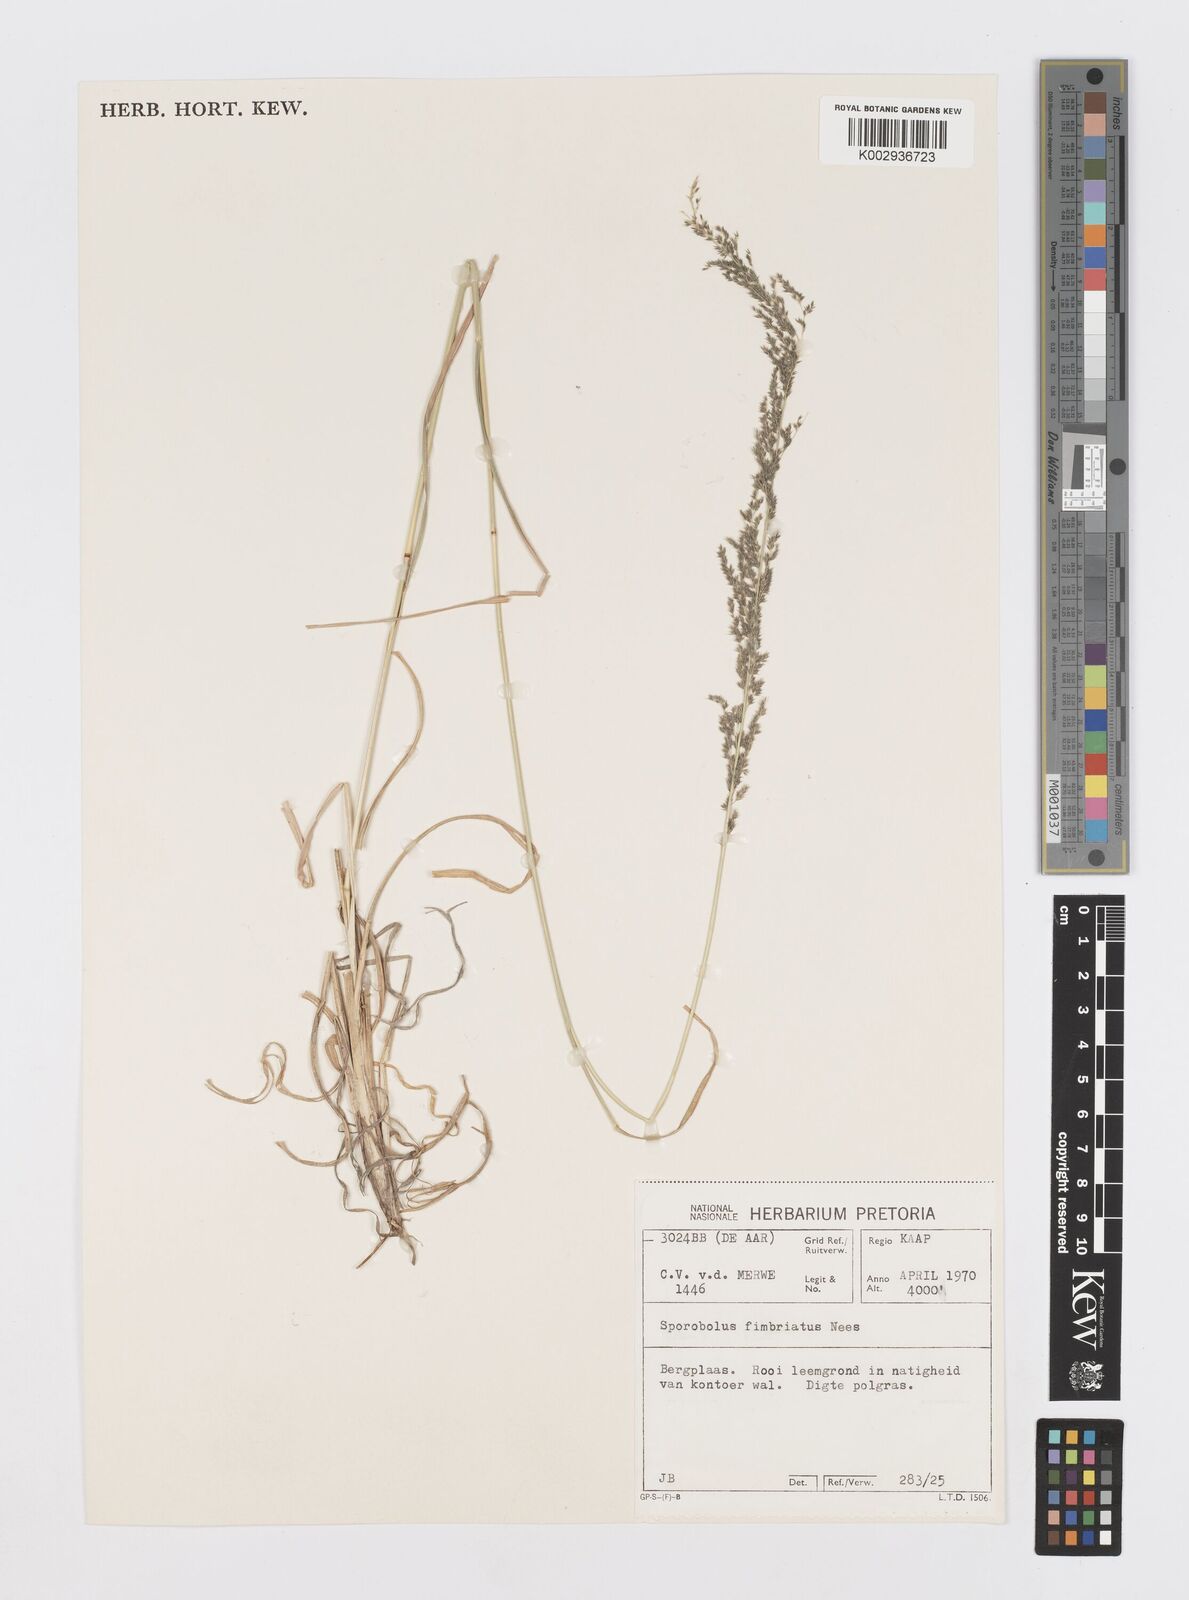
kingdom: Plantae
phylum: Tracheophyta
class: Liliopsida
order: Poales
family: Poaceae
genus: Sporobolus
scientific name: Sporobolus fimbriatus
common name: Fringed dropseed
